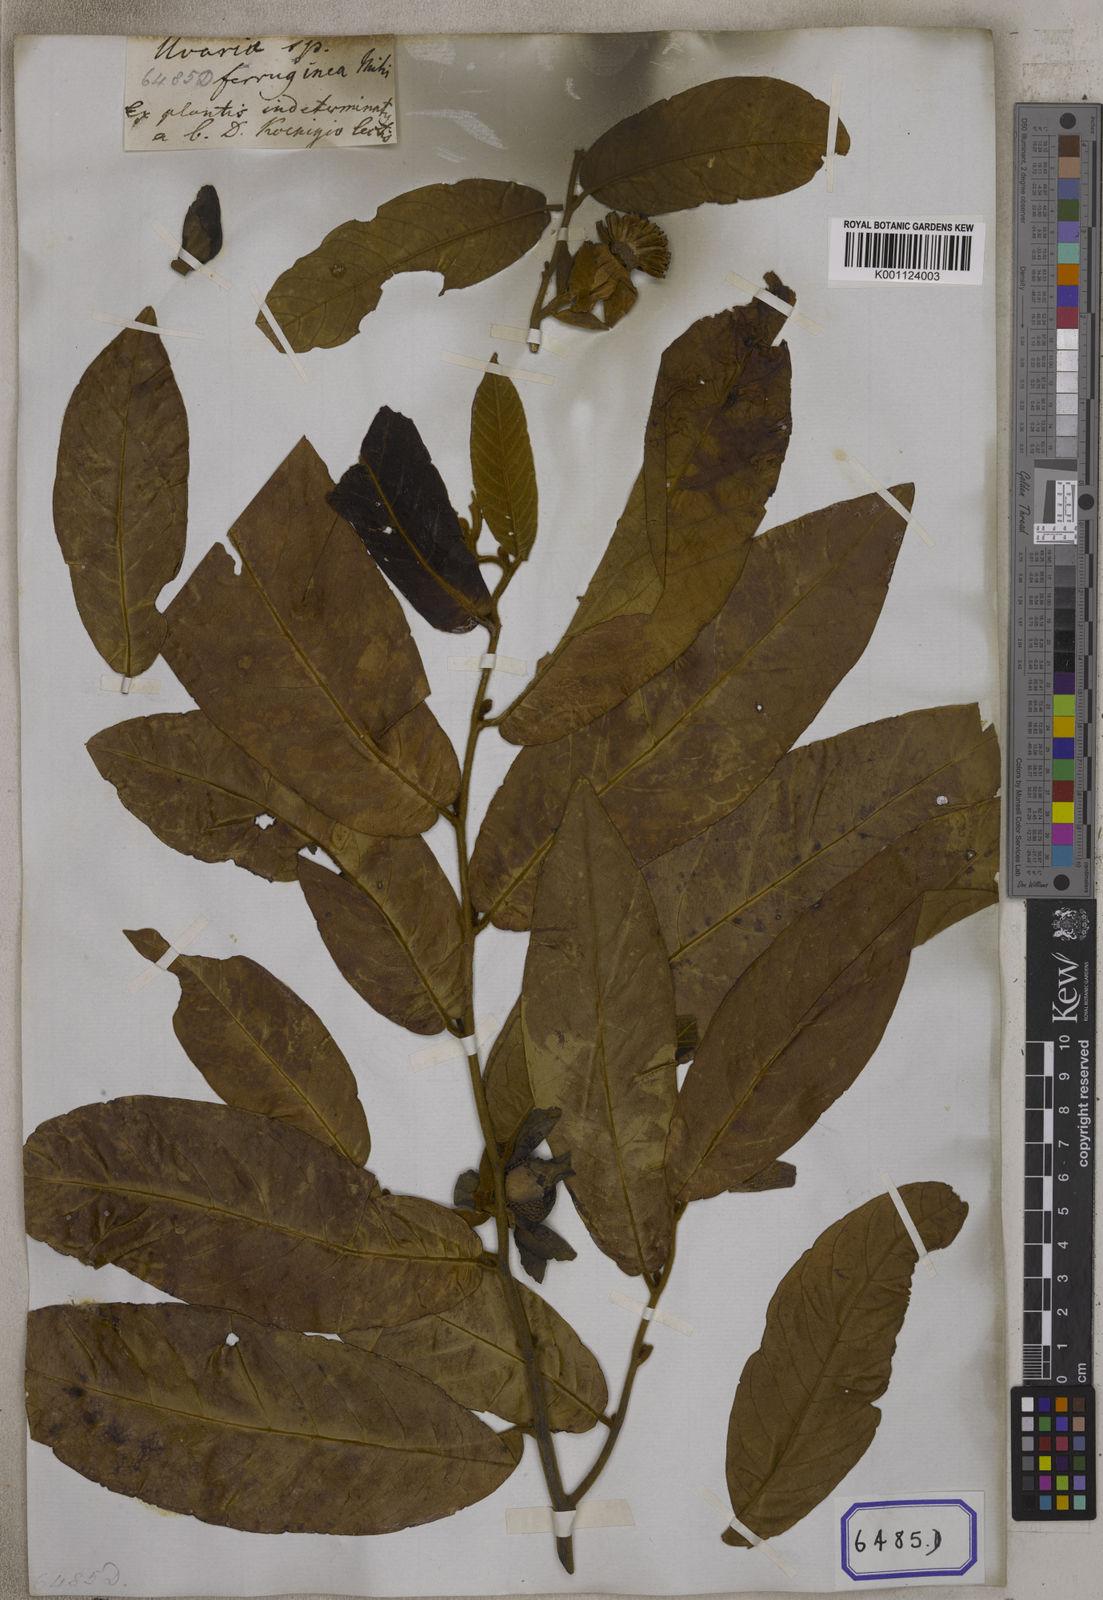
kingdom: Plantae
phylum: Tracheophyta
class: Magnoliopsida
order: Magnoliales
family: Annonaceae
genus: Uvaria
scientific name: Uvaria grandiflora
